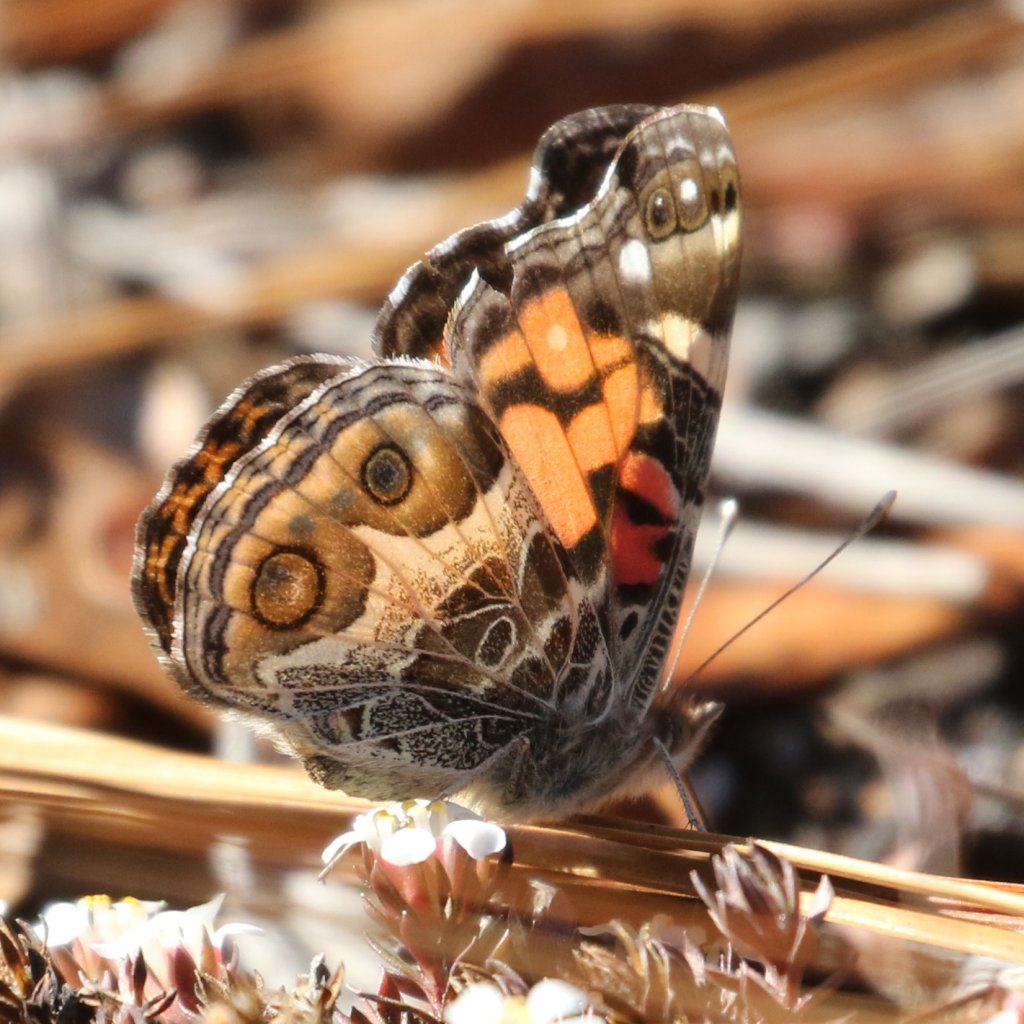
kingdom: Animalia
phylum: Arthropoda
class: Insecta
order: Lepidoptera
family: Nymphalidae
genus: Vanessa
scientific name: Vanessa virginiensis
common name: American Lady
